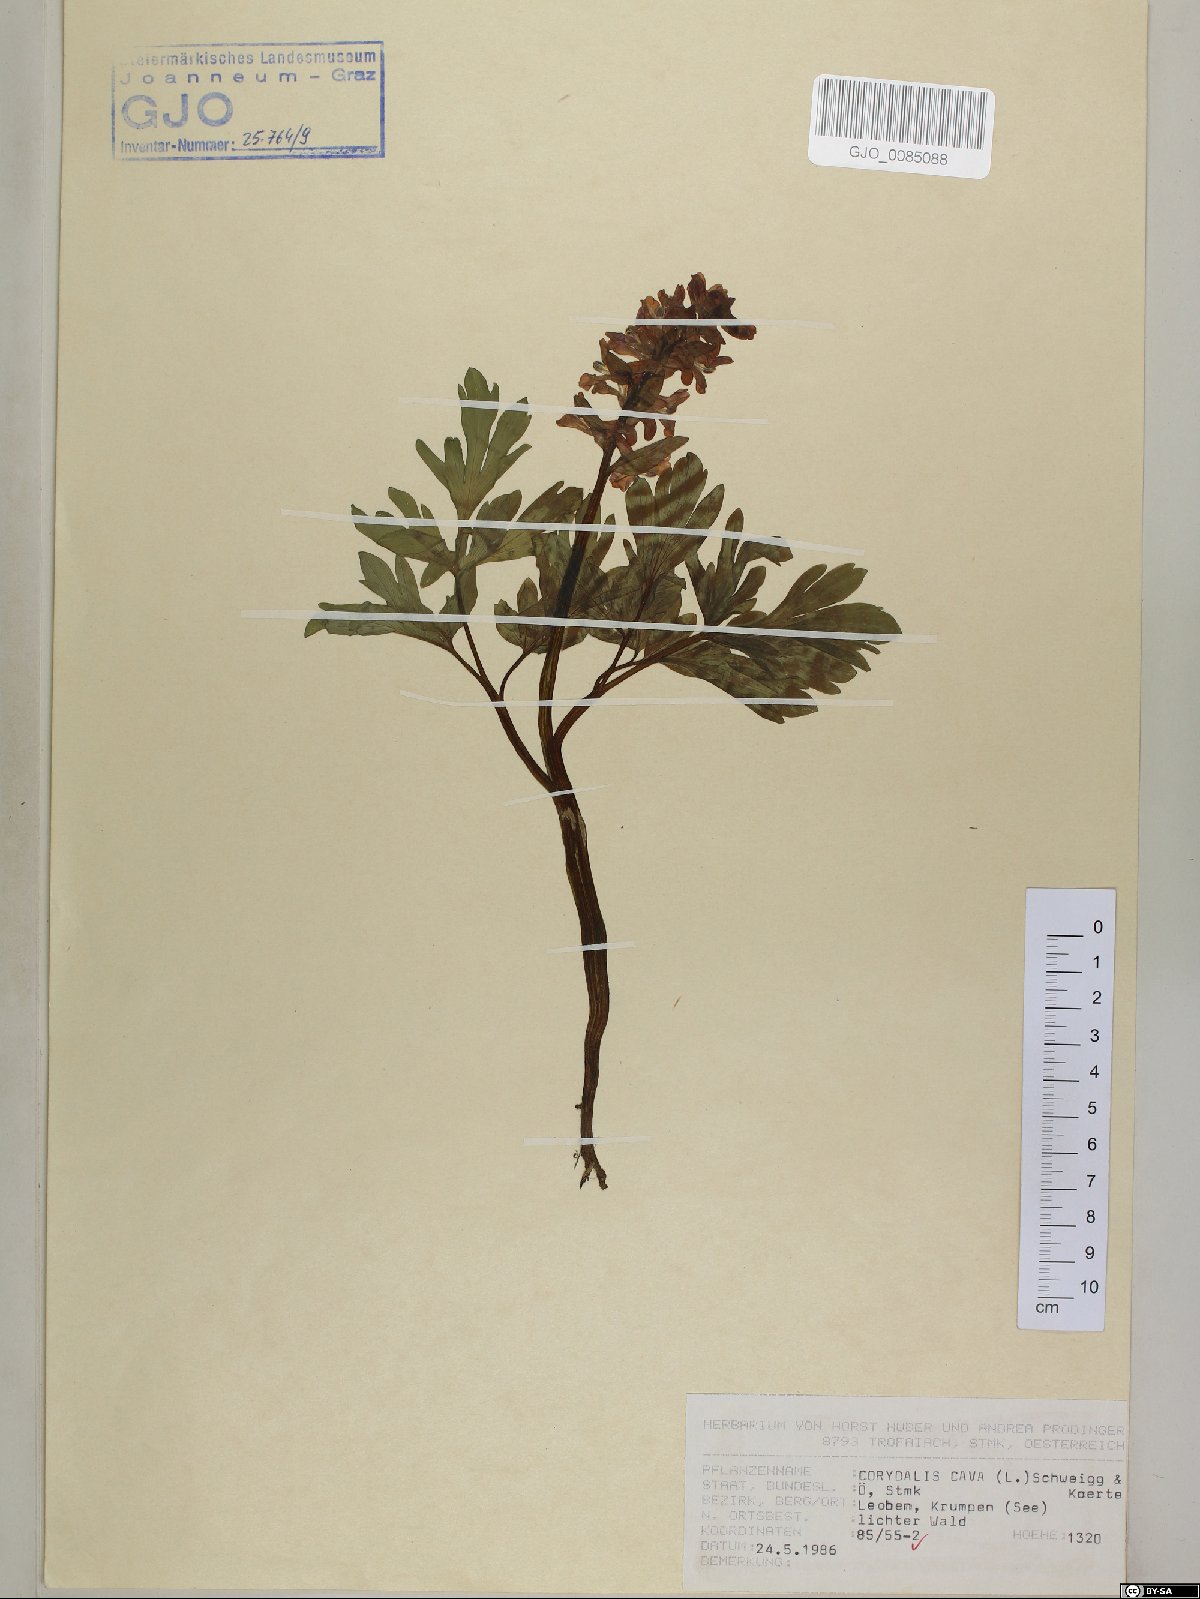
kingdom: Plantae
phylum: Tracheophyta
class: Magnoliopsida
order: Ranunculales
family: Papaveraceae
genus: Corydalis
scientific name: Corydalis cava
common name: Hollowroot
